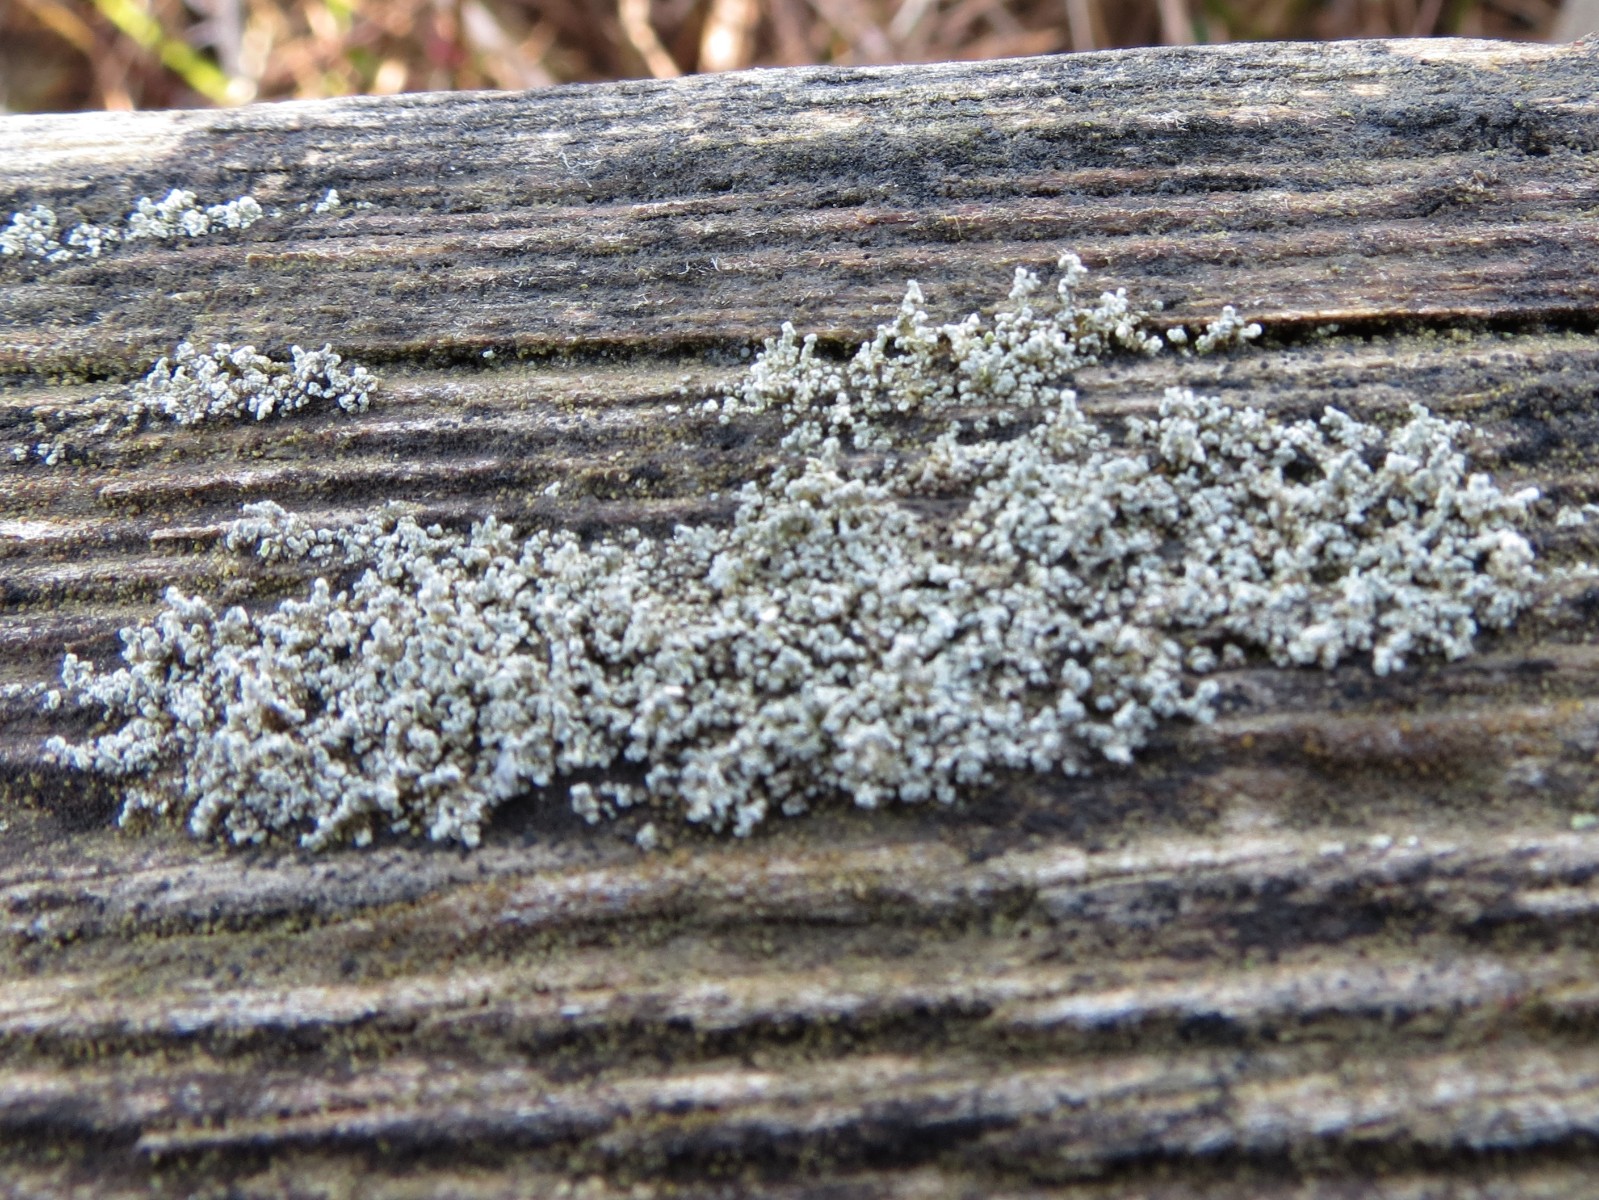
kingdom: Fungi
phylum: Ascomycota
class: Lecanoromycetes
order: Lecanorales
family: Stereocaulaceae
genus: Stereocaulon
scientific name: Stereocaulon vesuvianum
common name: skjold-korallav
